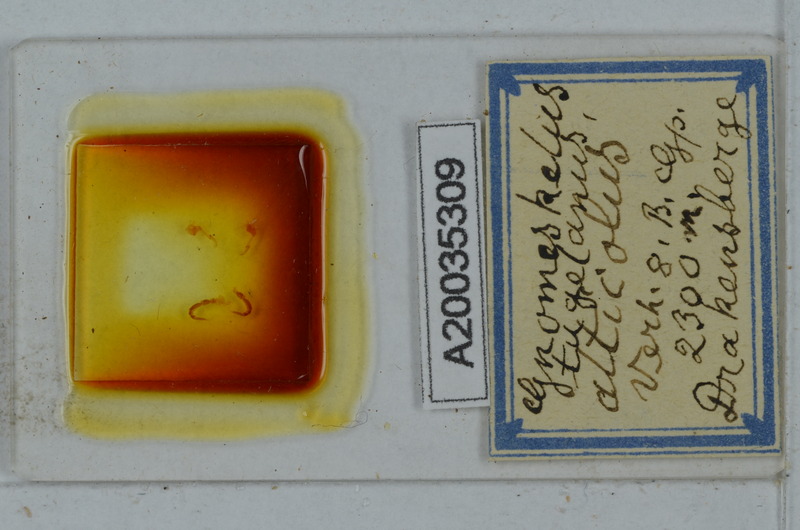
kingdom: Animalia
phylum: Arthropoda
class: Diplopoda
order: Polydesmida
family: Dalodesmidae
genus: Gnomeskelus
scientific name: Gnomeskelus tugelanus
